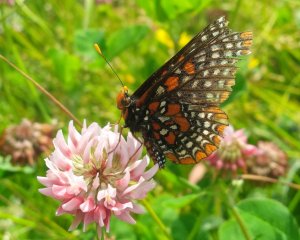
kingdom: Animalia
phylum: Arthropoda
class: Insecta
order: Lepidoptera
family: Nymphalidae
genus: Euphydryas
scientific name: Euphydryas phaeton
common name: Baltimore Checkerspot
